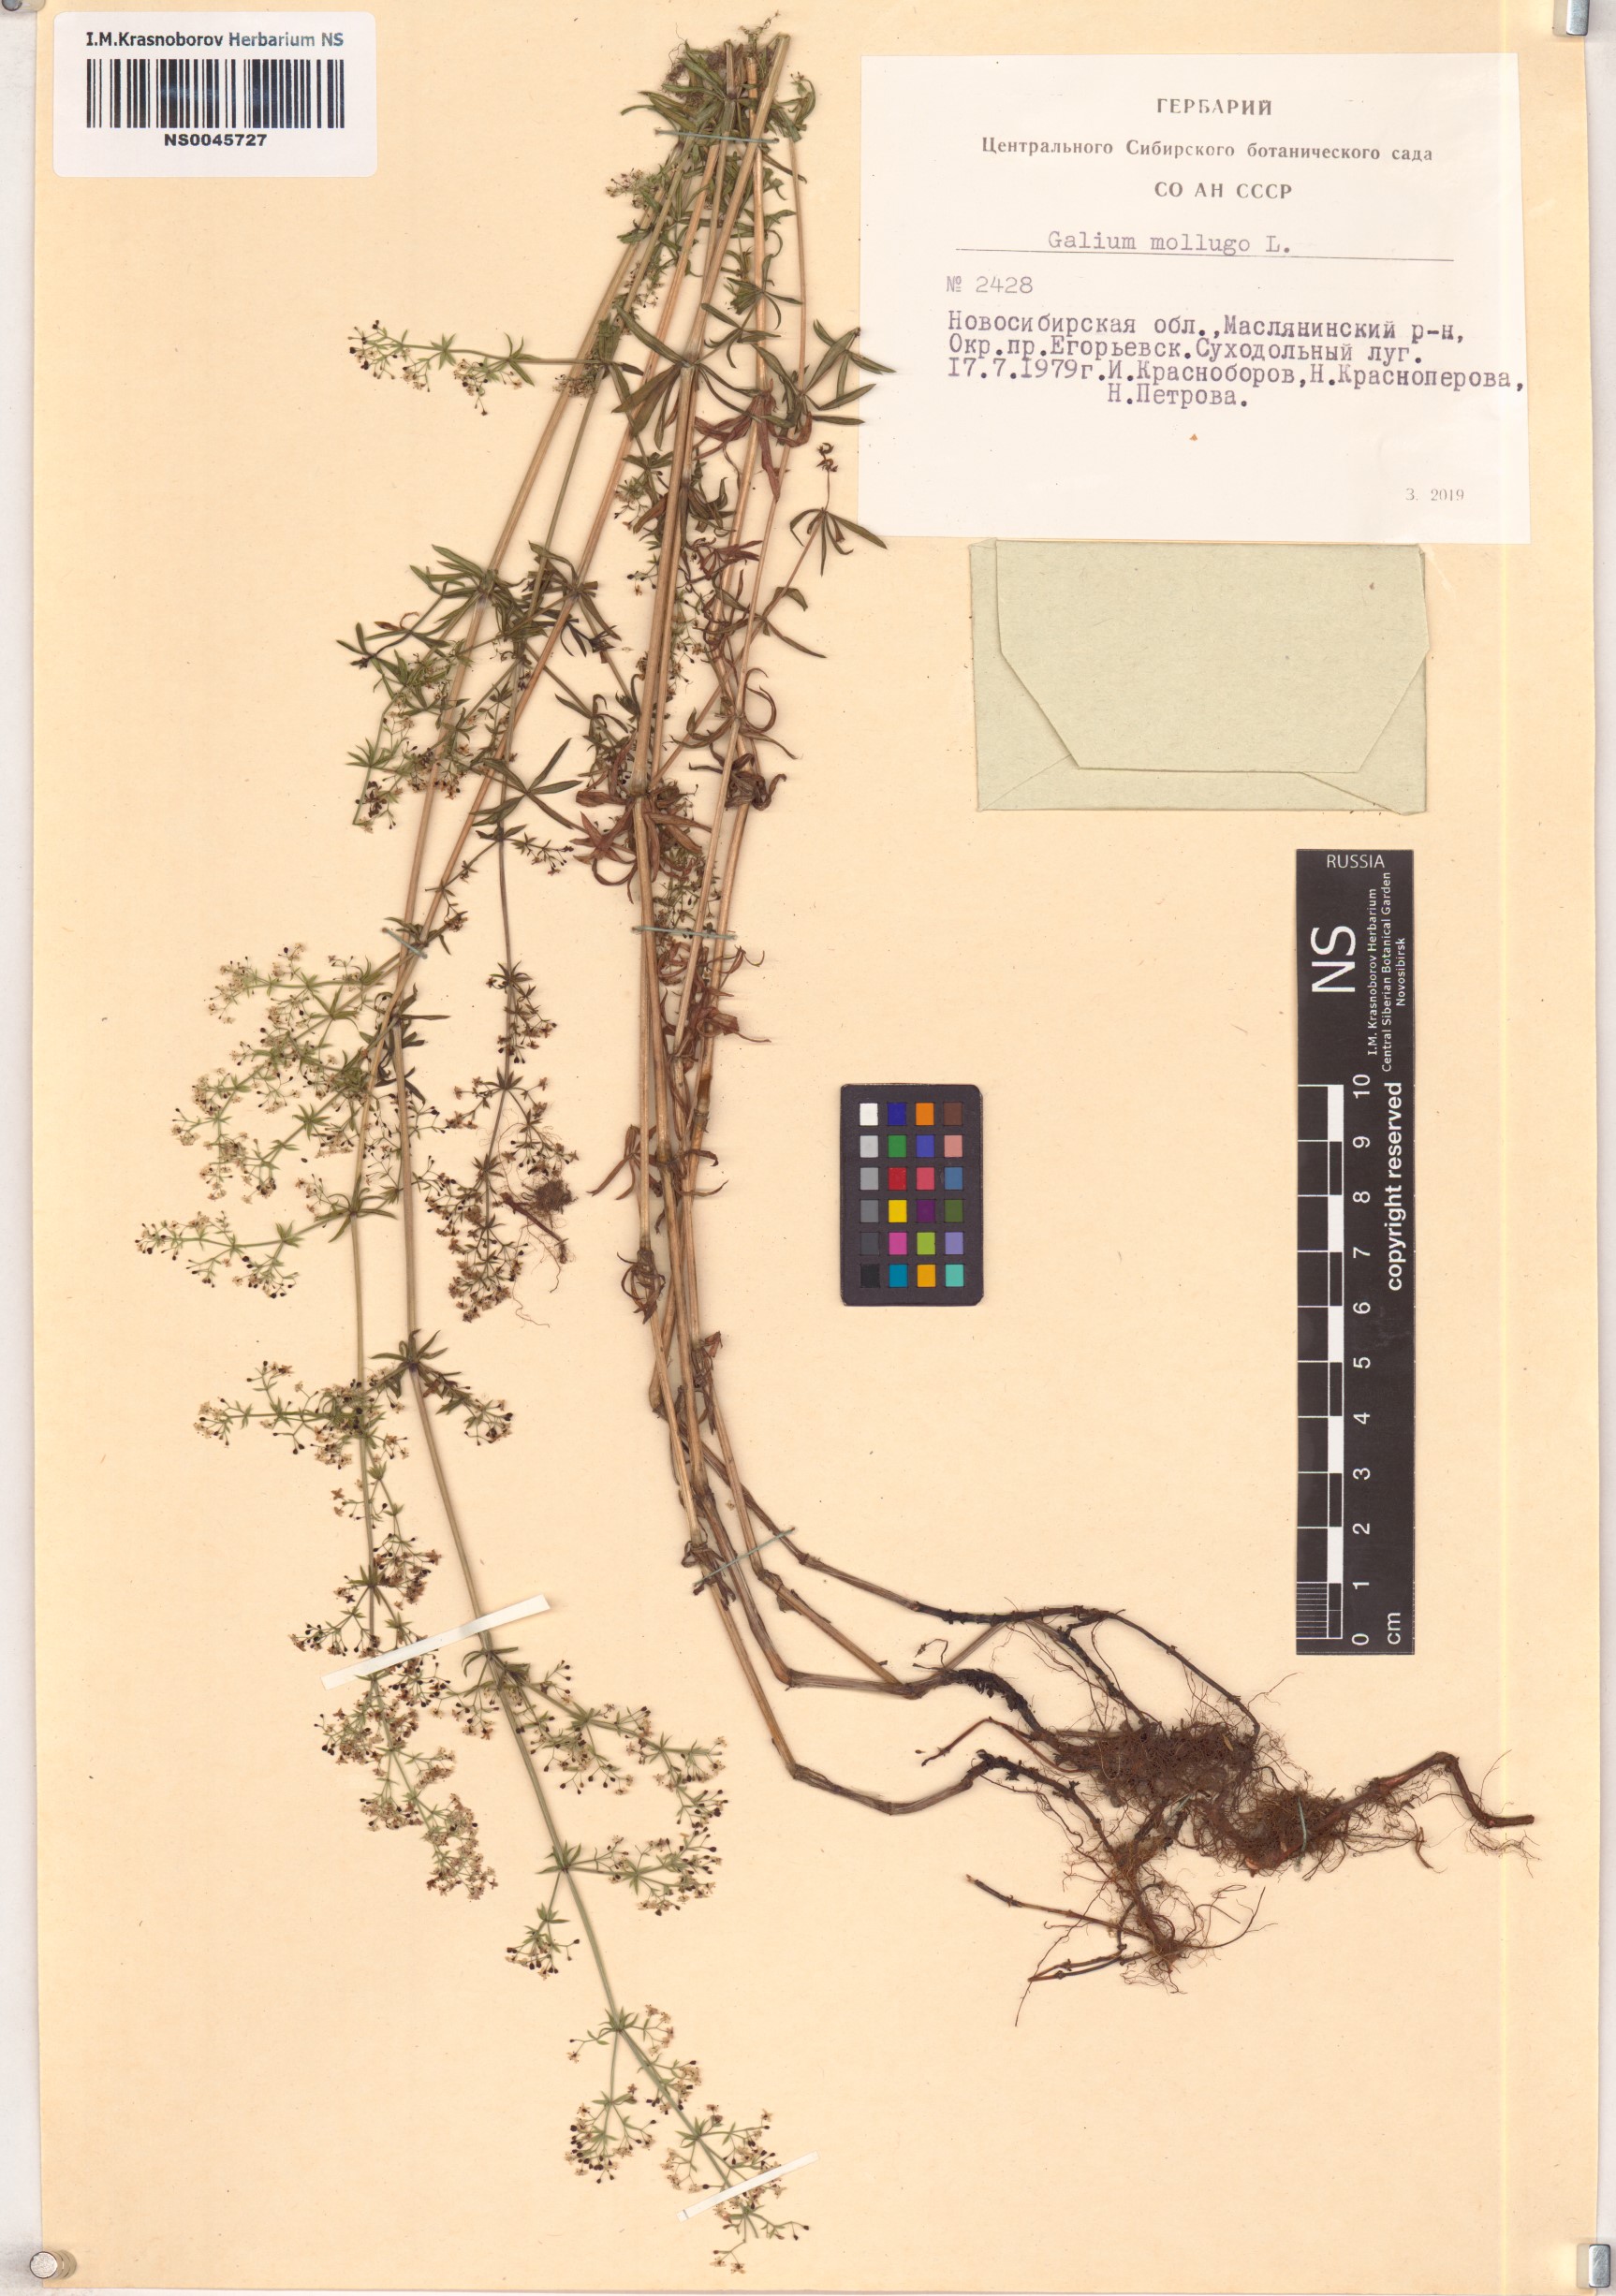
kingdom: Plantae
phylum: Tracheophyta
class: Magnoliopsida
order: Gentianales
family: Rubiaceae
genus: Galium
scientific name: Galium mollugo
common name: Hedge bedstraw
